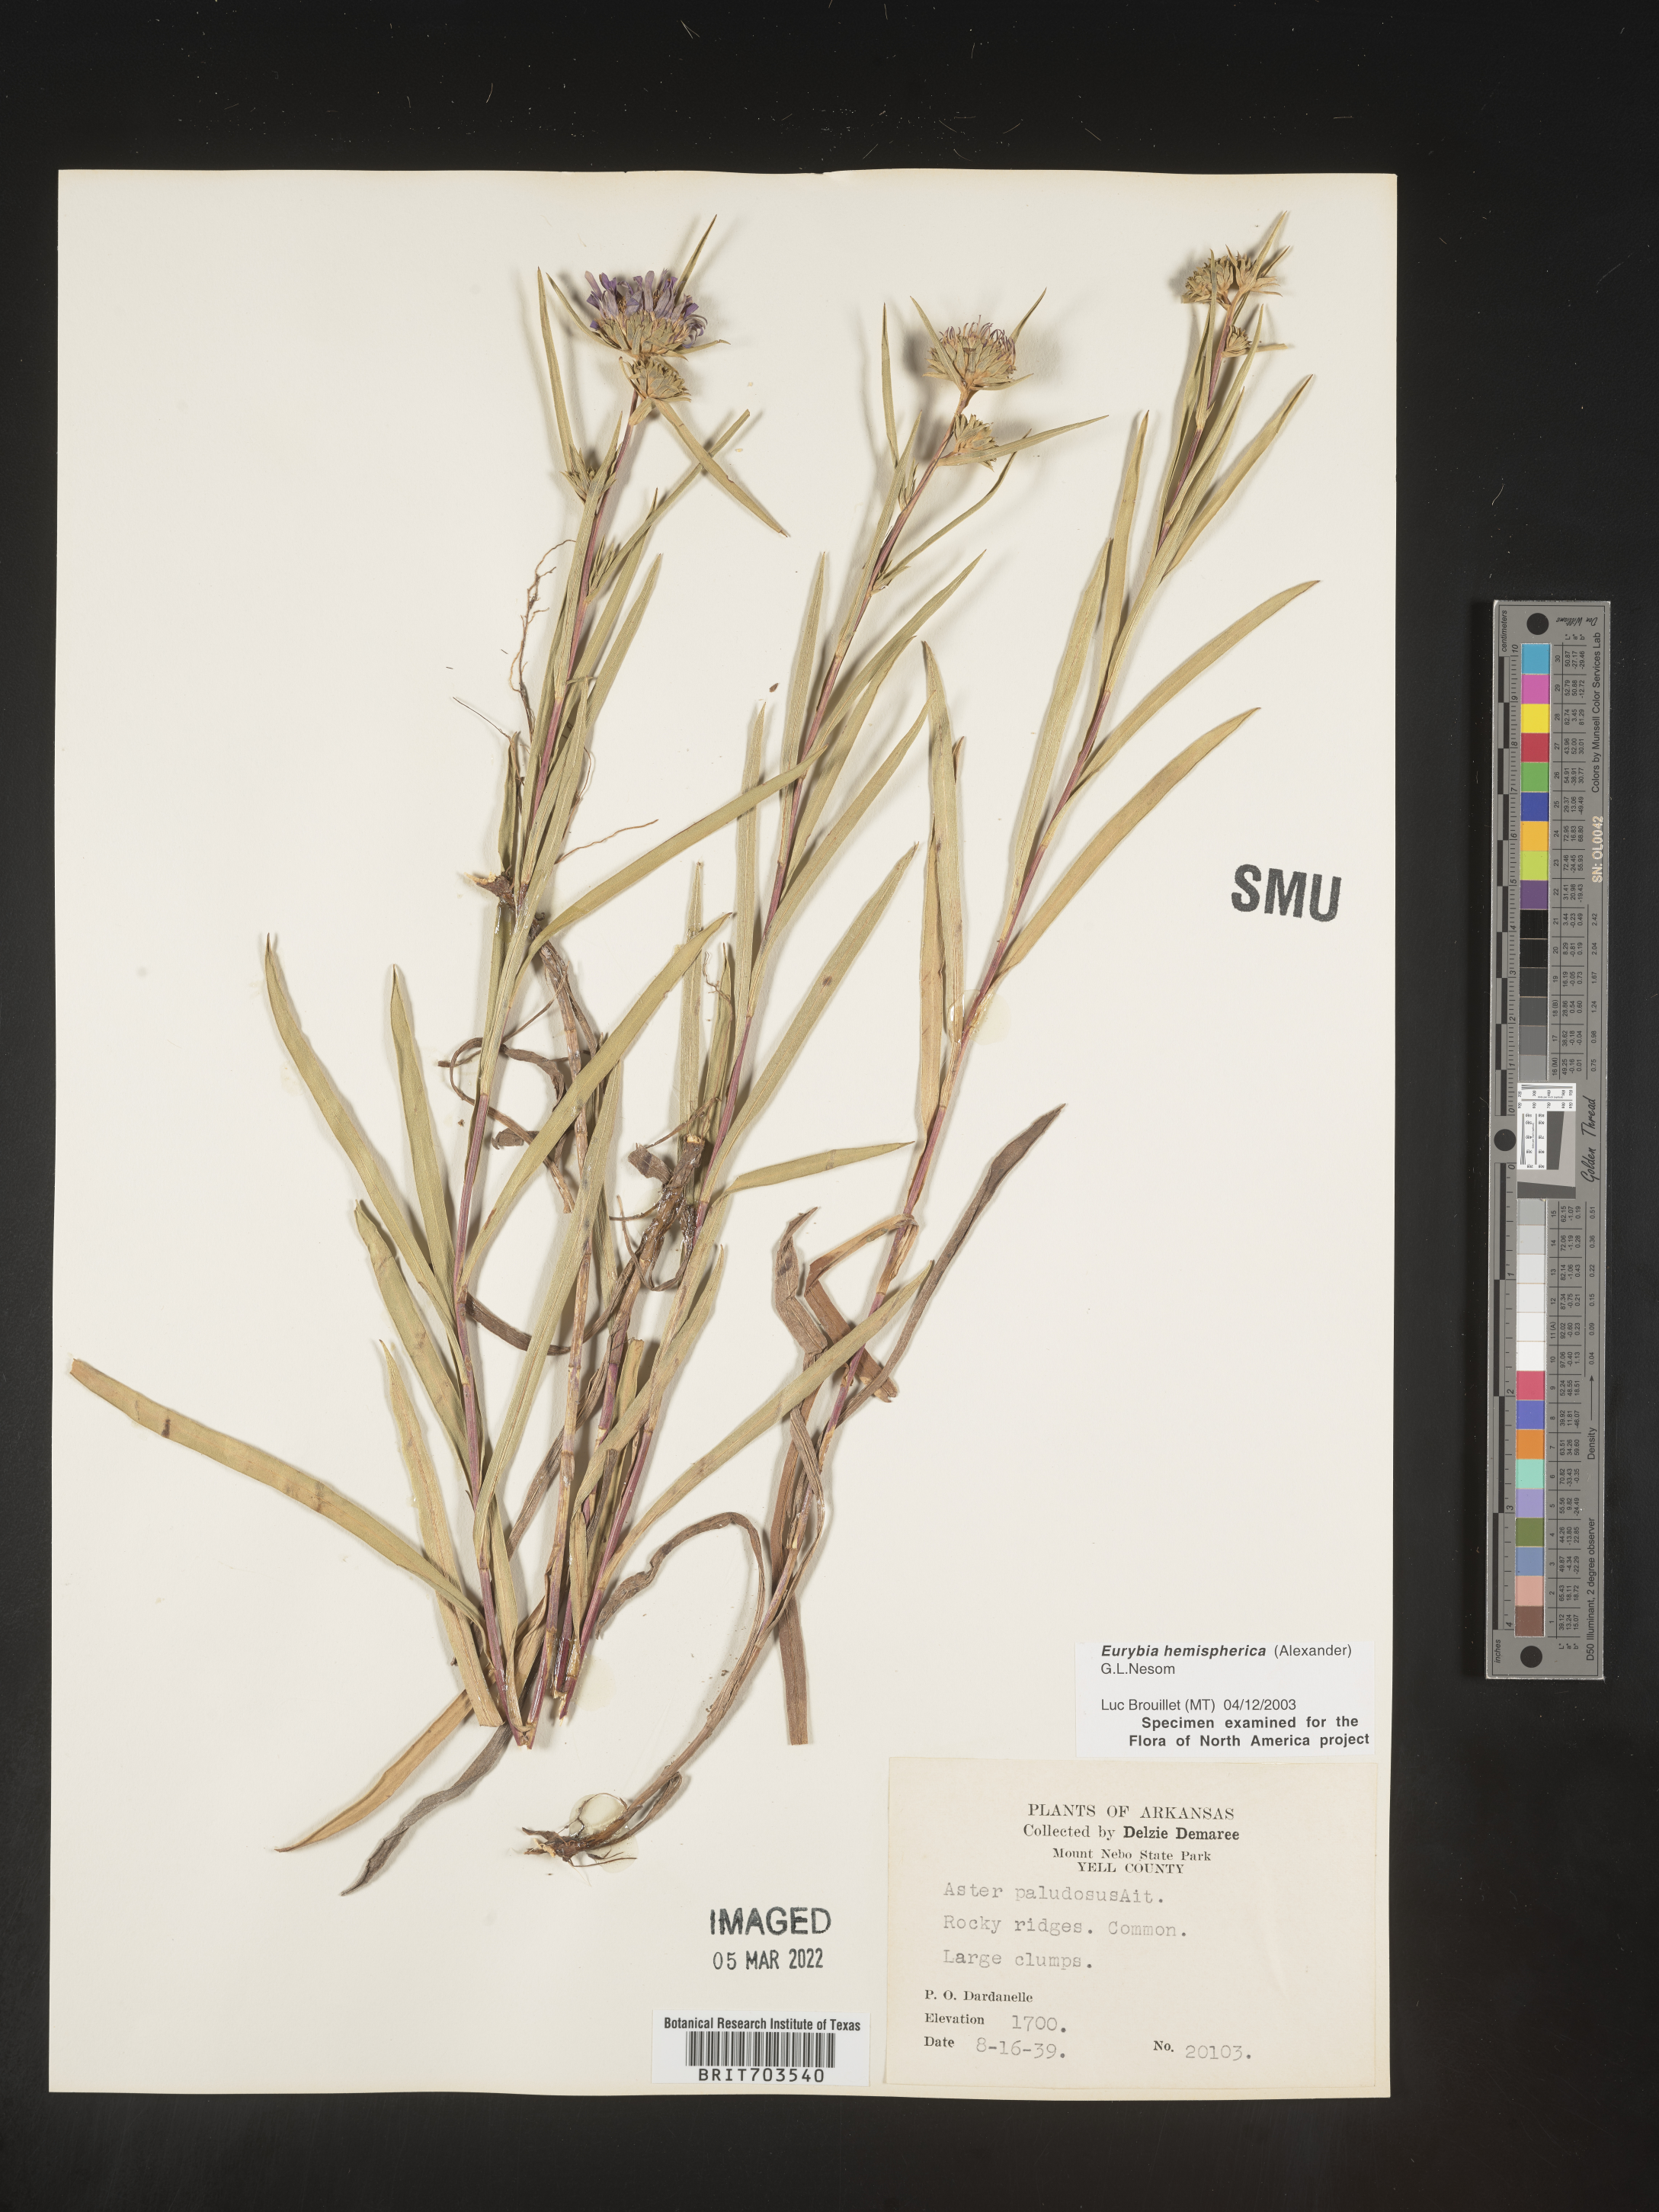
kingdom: Plantae
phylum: Tracheophyta
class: Magnoliopsida
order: Asterales
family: Asteraceae
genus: Eurybia
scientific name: Eurybia hemispherica
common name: Showy aster
